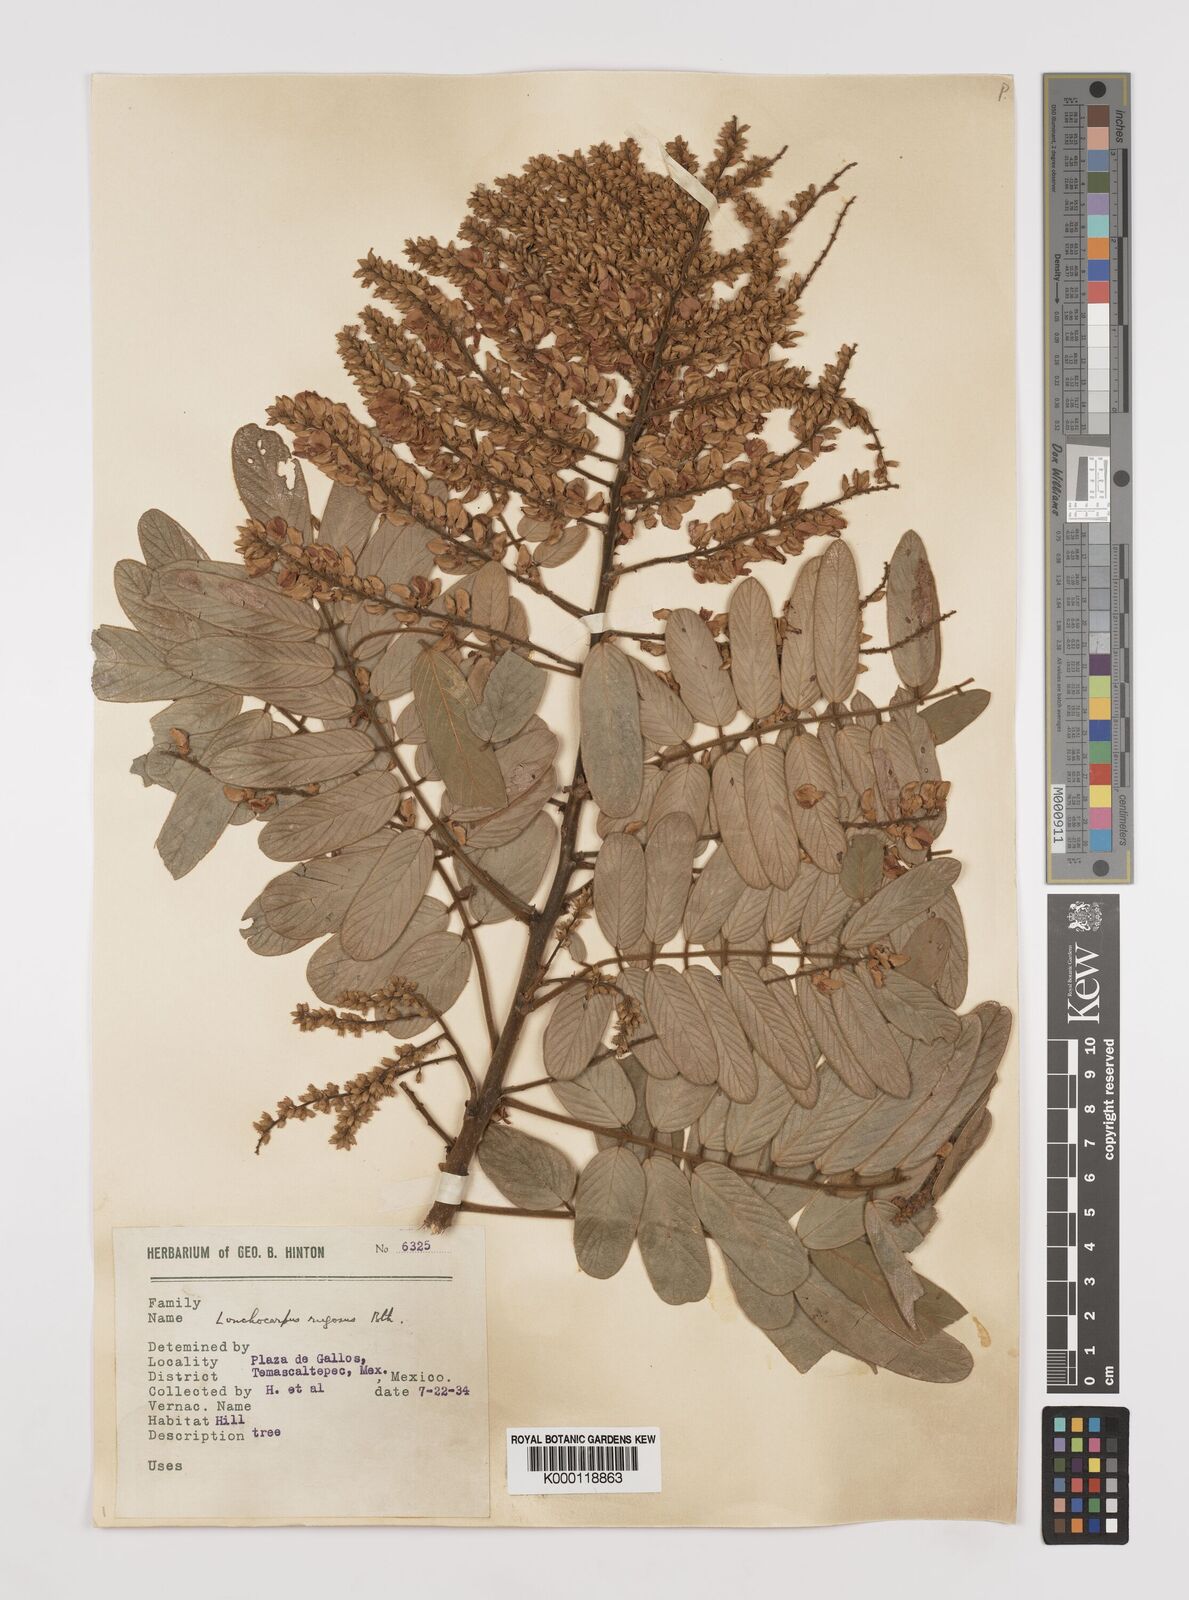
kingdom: Plantae
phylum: Tracheophyta
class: Magnoliopsida
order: Fabales
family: Fabaceae
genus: Lonchocarpus
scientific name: Lonchocarpus rugosus
